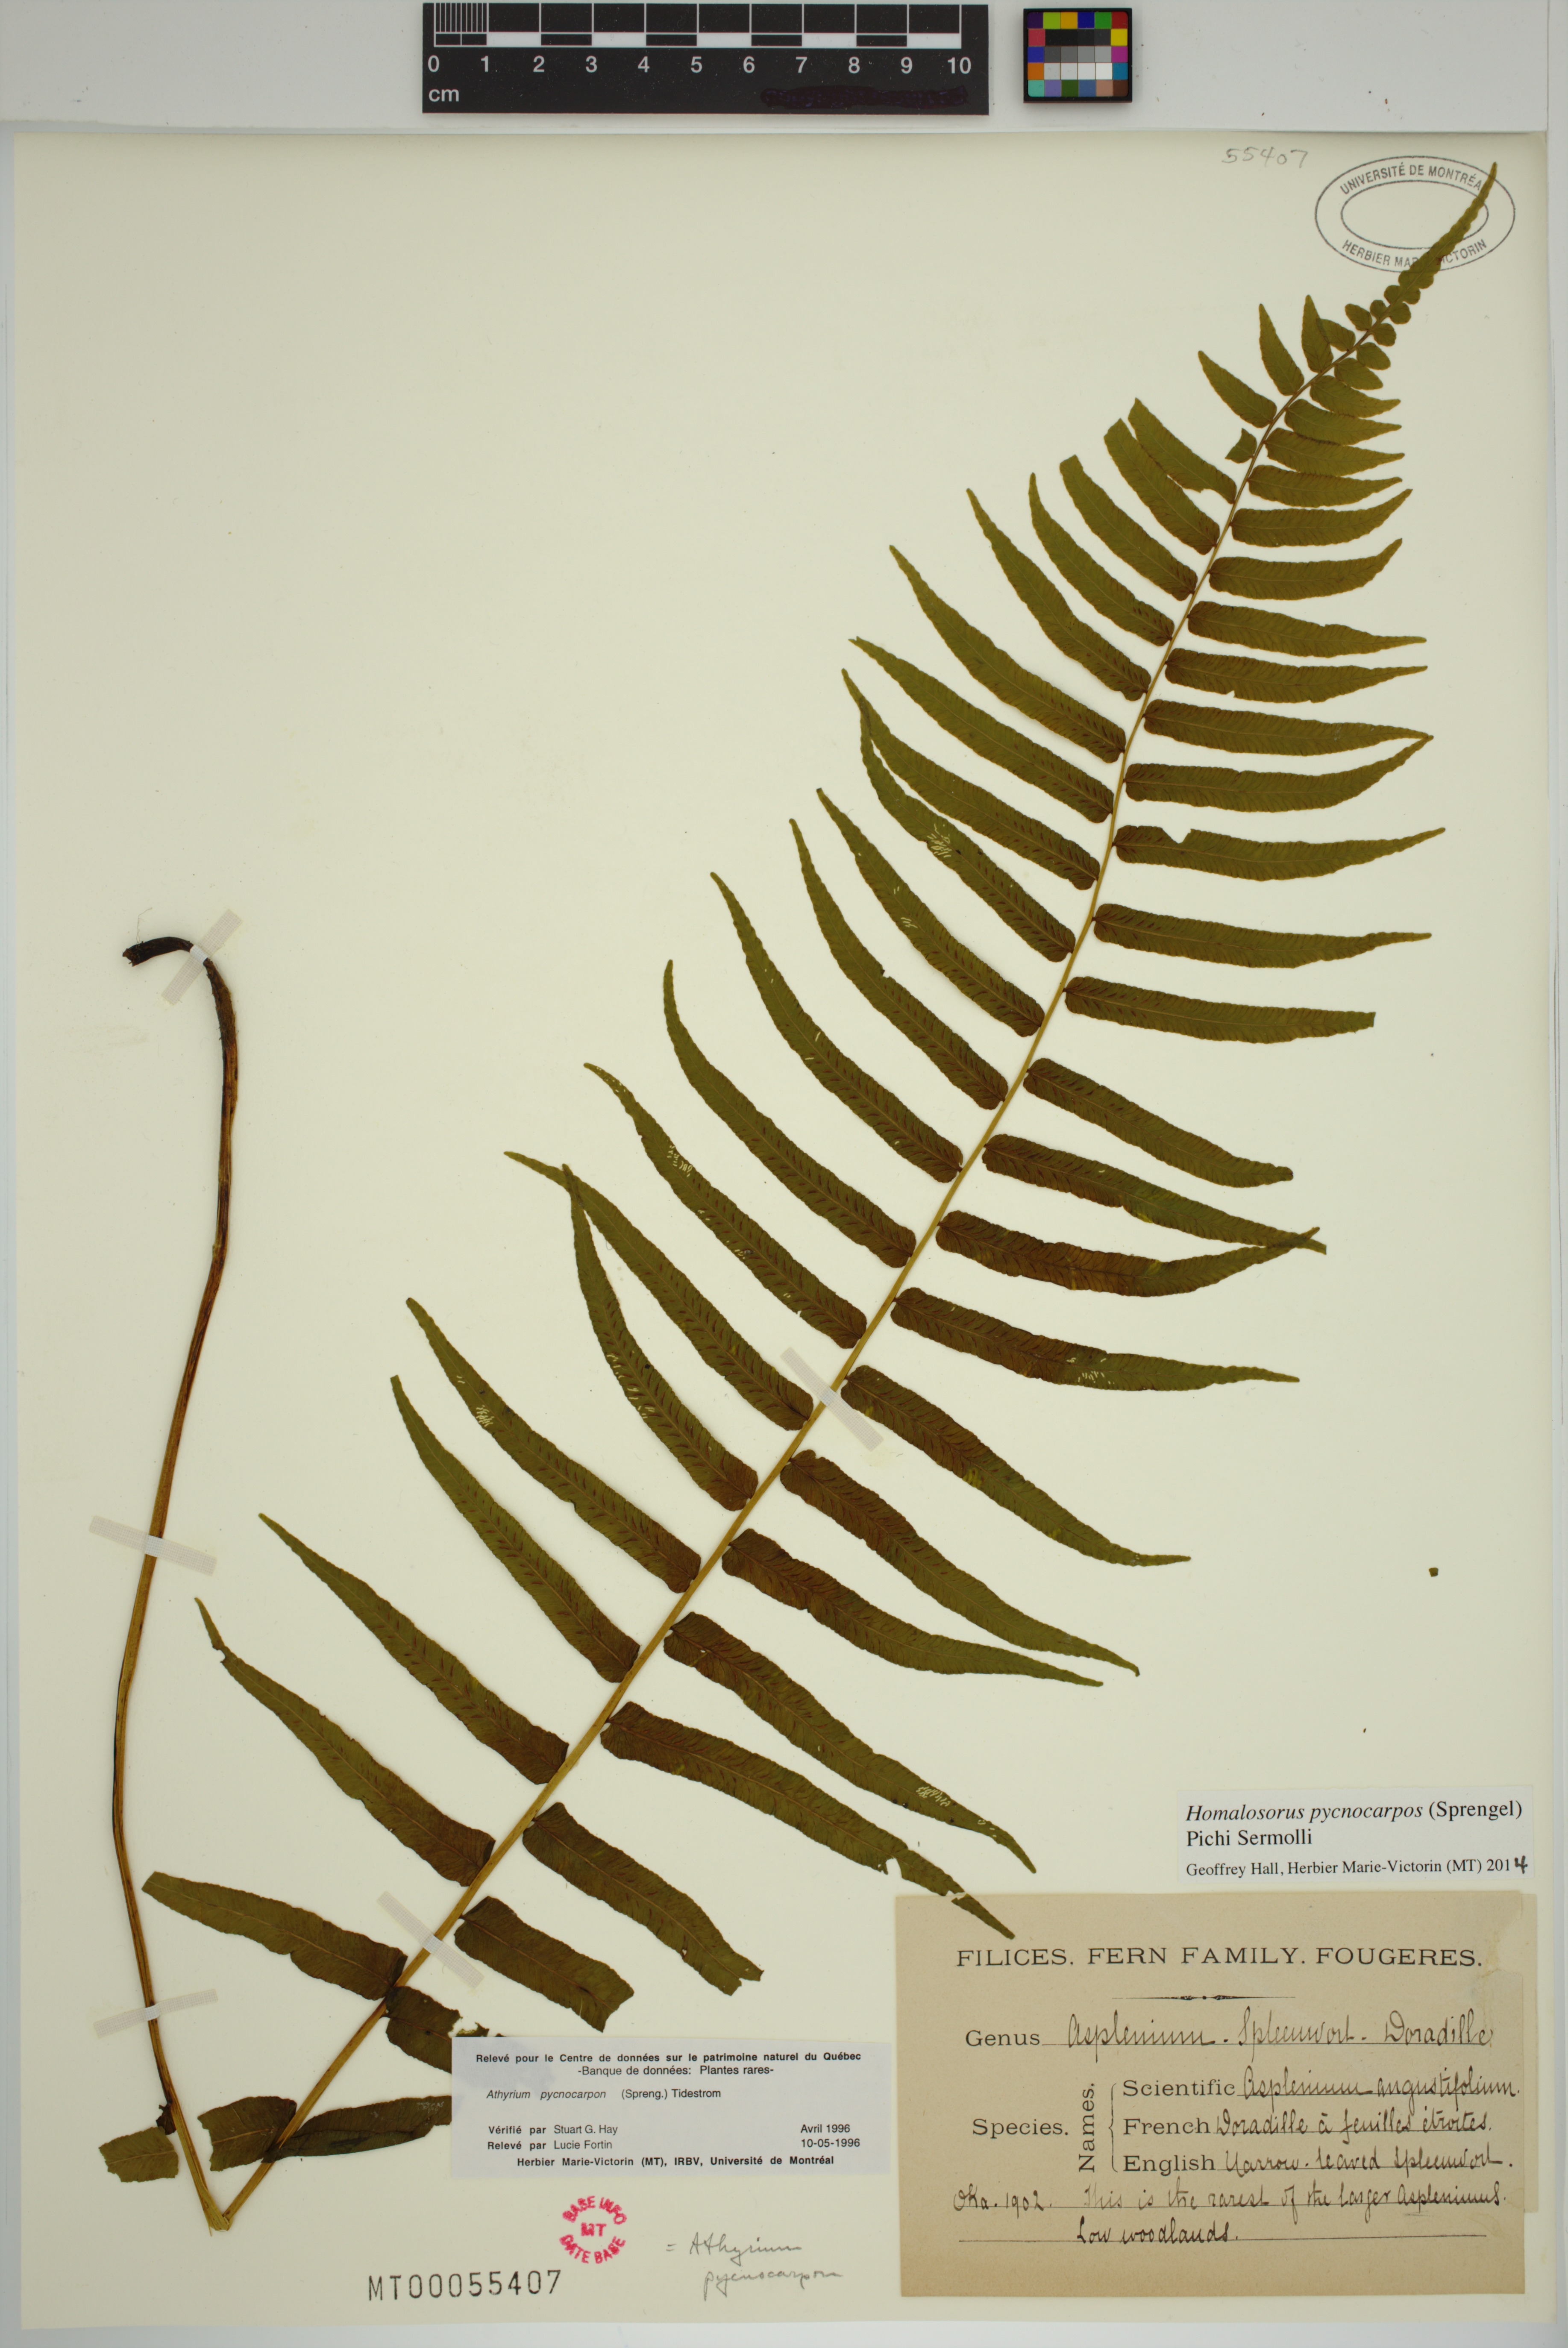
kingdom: Plantae
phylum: Tracheophyta
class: Polypodiopsida
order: Polypodiales
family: Diplaziopsidaceae
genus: Homalosorus
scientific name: Homalosorus pycnocarpos
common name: Glade fern
